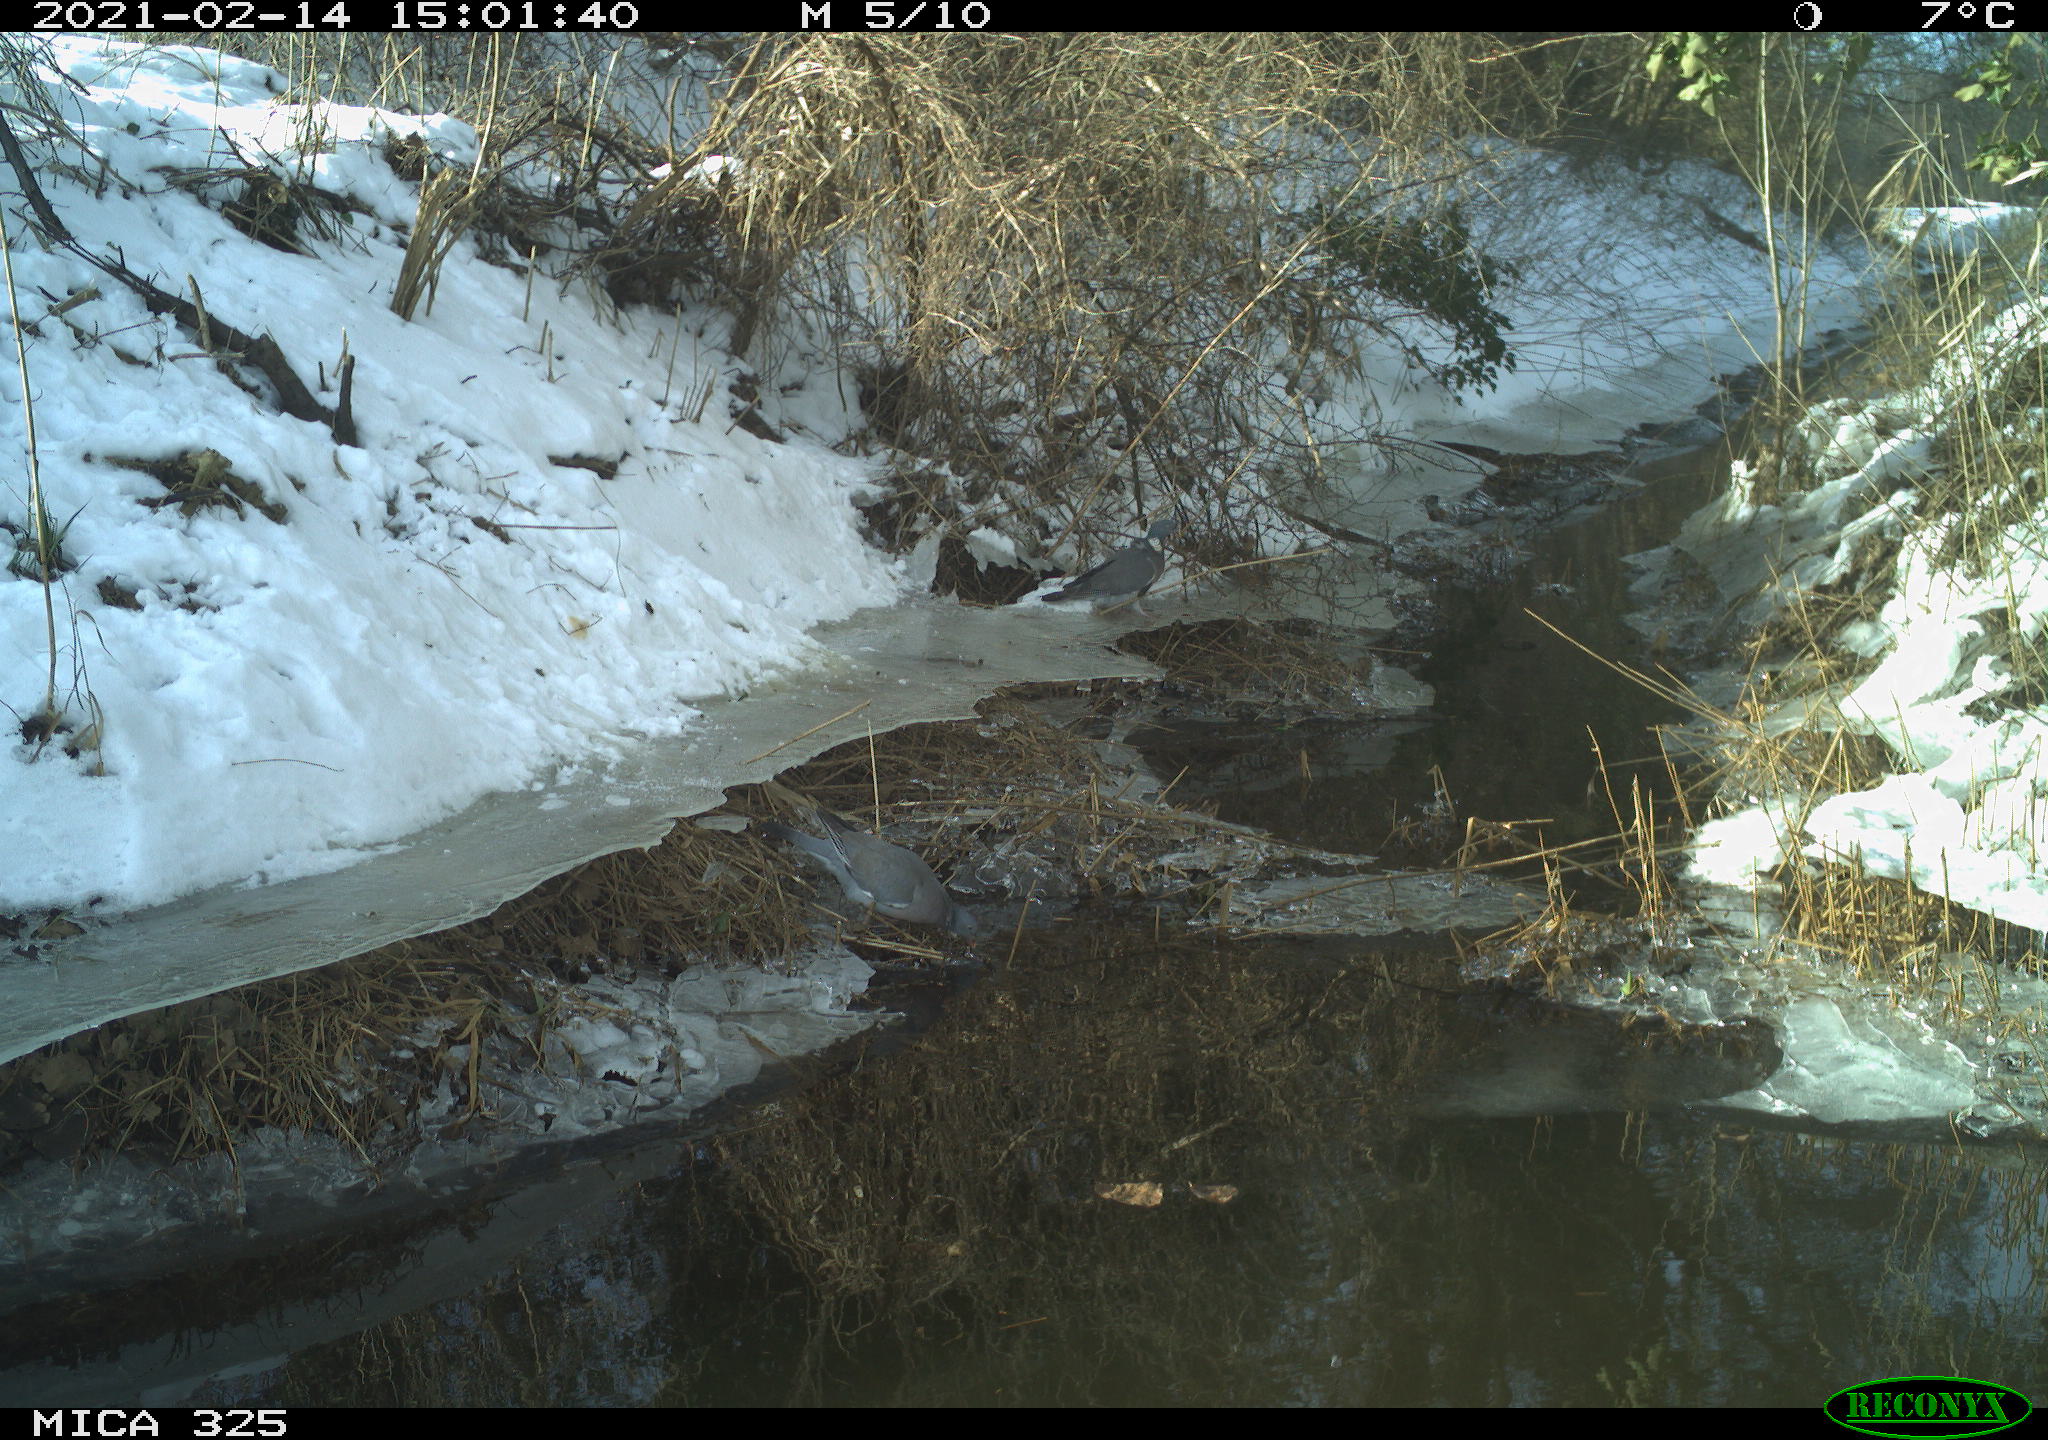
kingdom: Animalia
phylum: Chordata
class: Aves
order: Columbiformes
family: Columbidae
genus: Columba
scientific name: Columba palumbus
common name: Common wood pigeon
